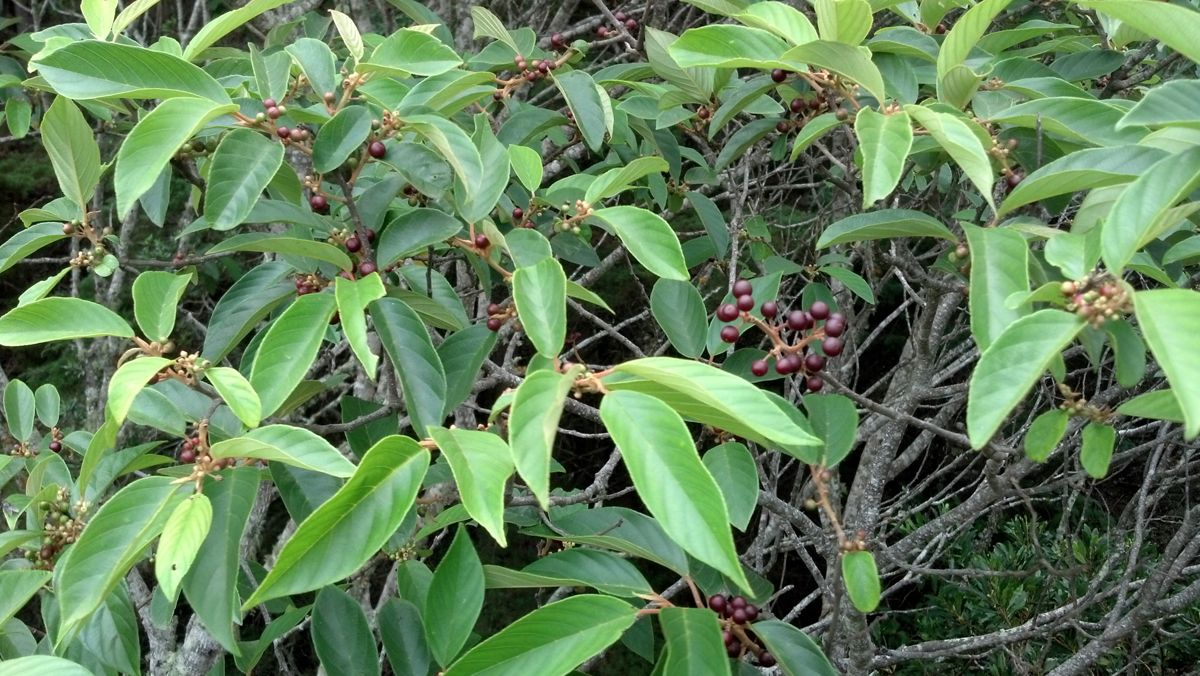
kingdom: Plantae
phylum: Tracheophyta
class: Magnoliopsida
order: Rosales
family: Rhamnaceae
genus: Frangula
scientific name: Frangula discolor
